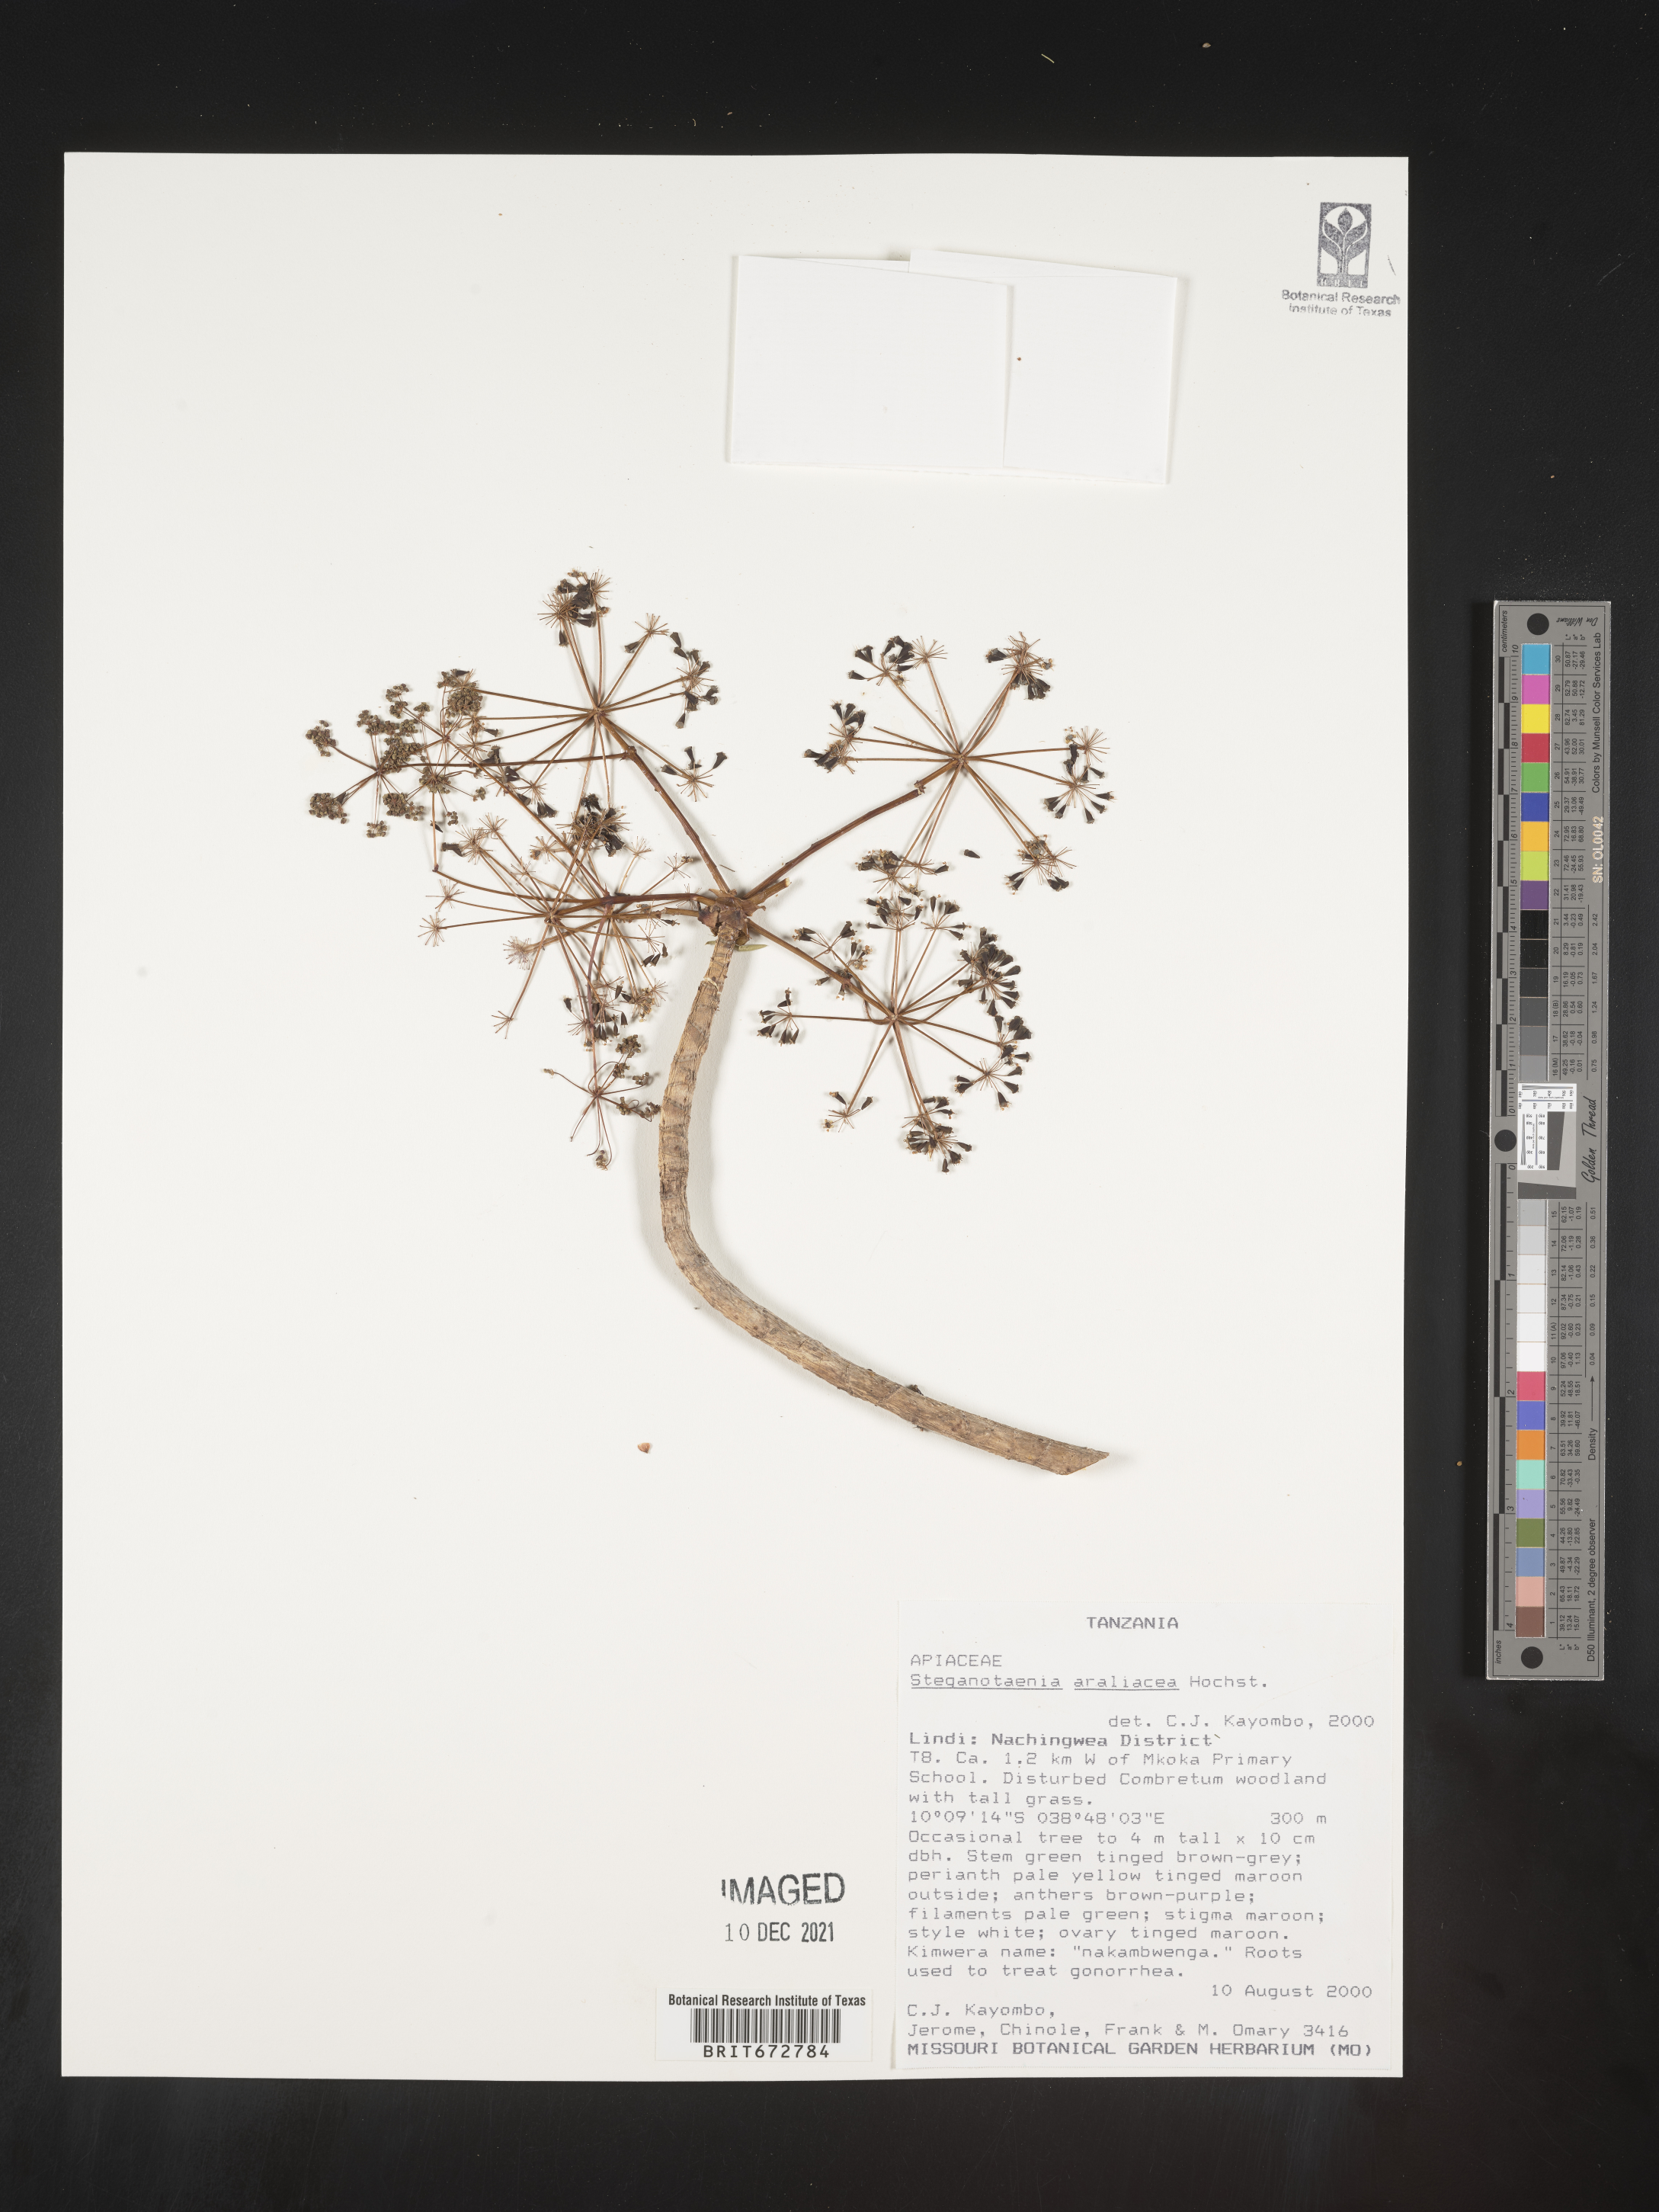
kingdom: Plantae
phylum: Tracheophyta
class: Magnoliopsida
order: Apiales
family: Apiaceae
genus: Steganotaenia
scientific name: Steganotaenia
